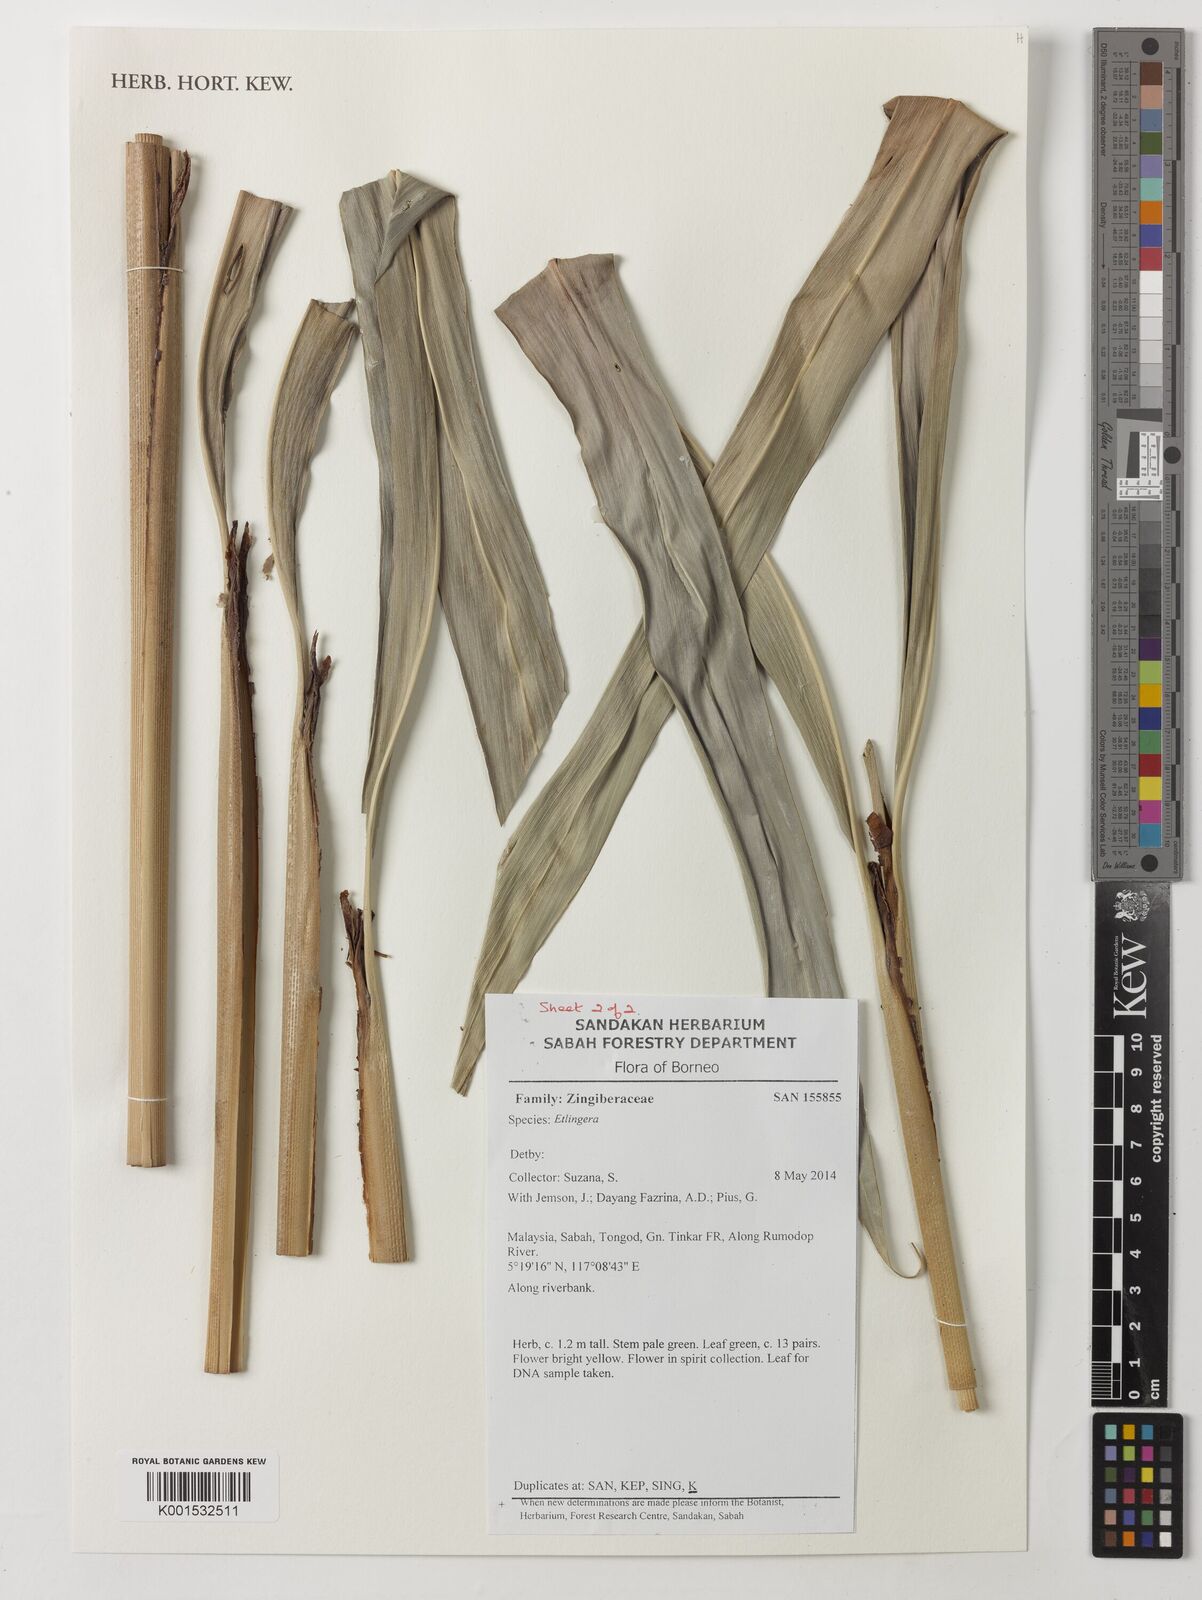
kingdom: Plantae
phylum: Tracheophyta
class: Liliopsida
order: Zingiberales
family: Zingiberaceae
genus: Etlingera
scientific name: Etlingera
